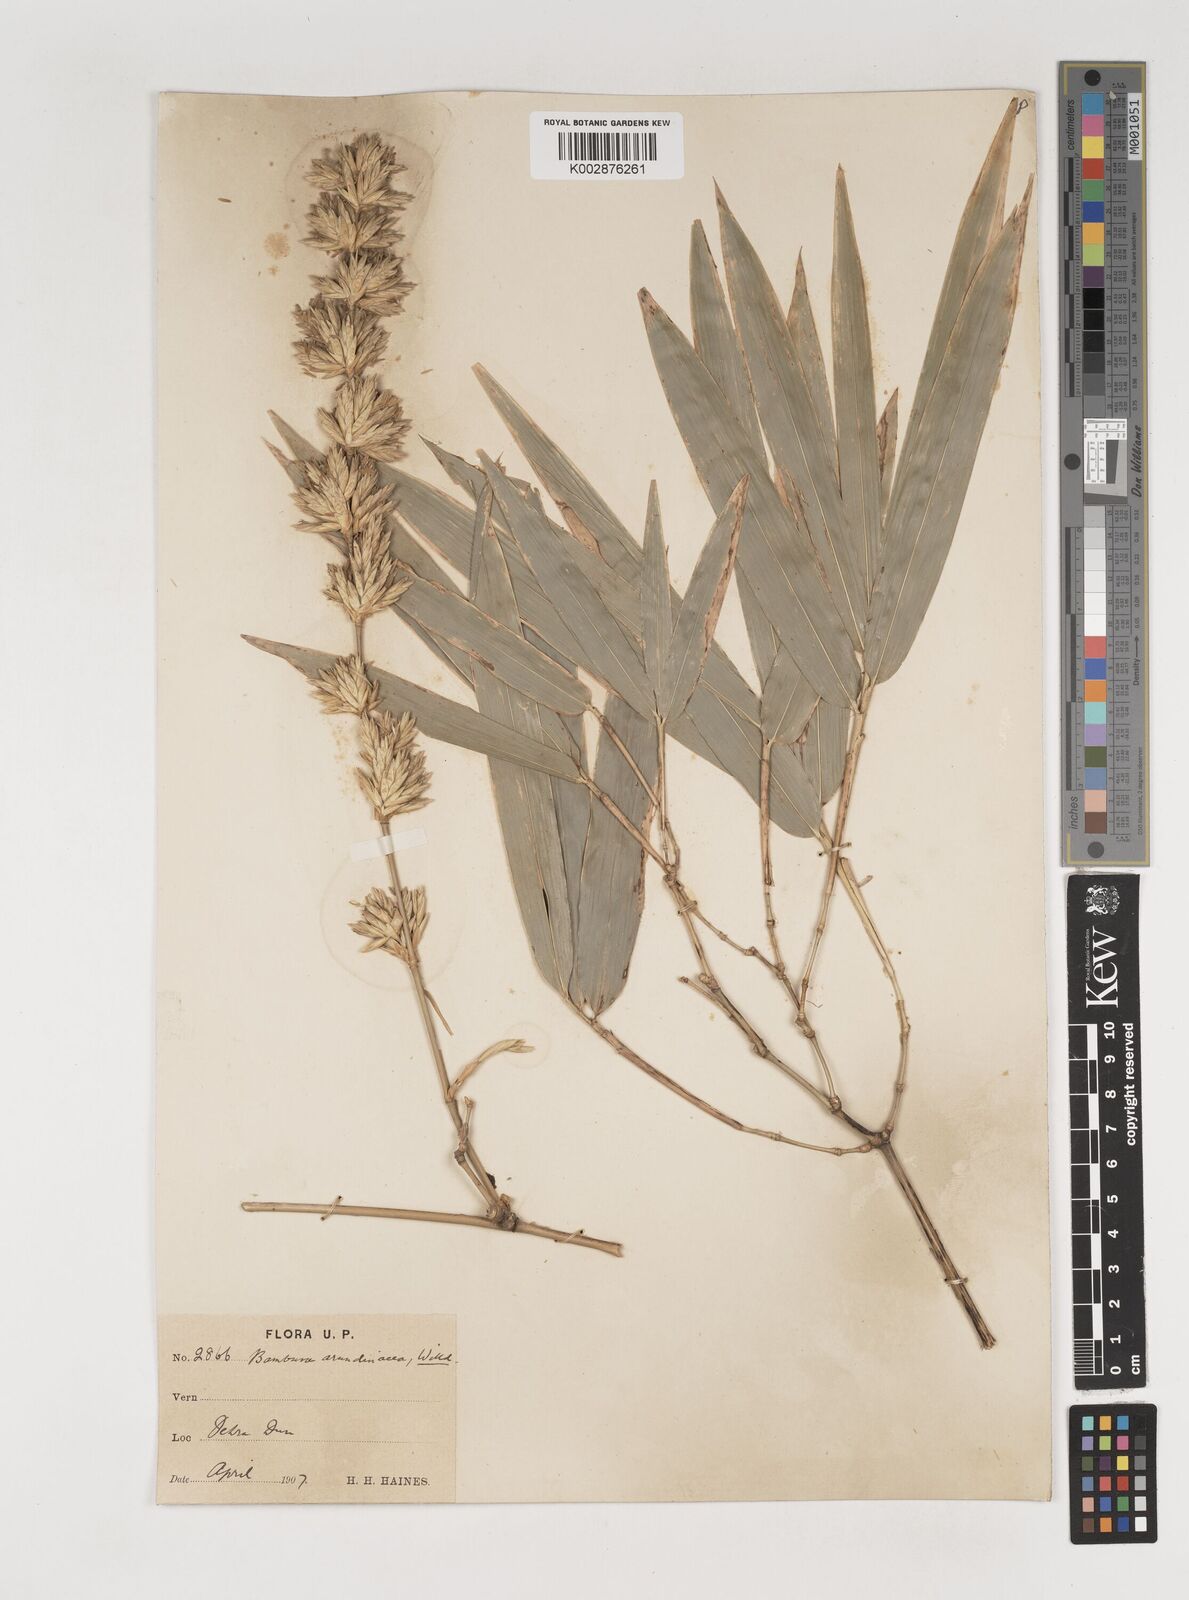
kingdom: Plantae
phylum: Tracheophyta
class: Liliopsida
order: Poales
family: Poaceae
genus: Bambusa
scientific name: Bambusa bambos
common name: Indian thorny bamboo
